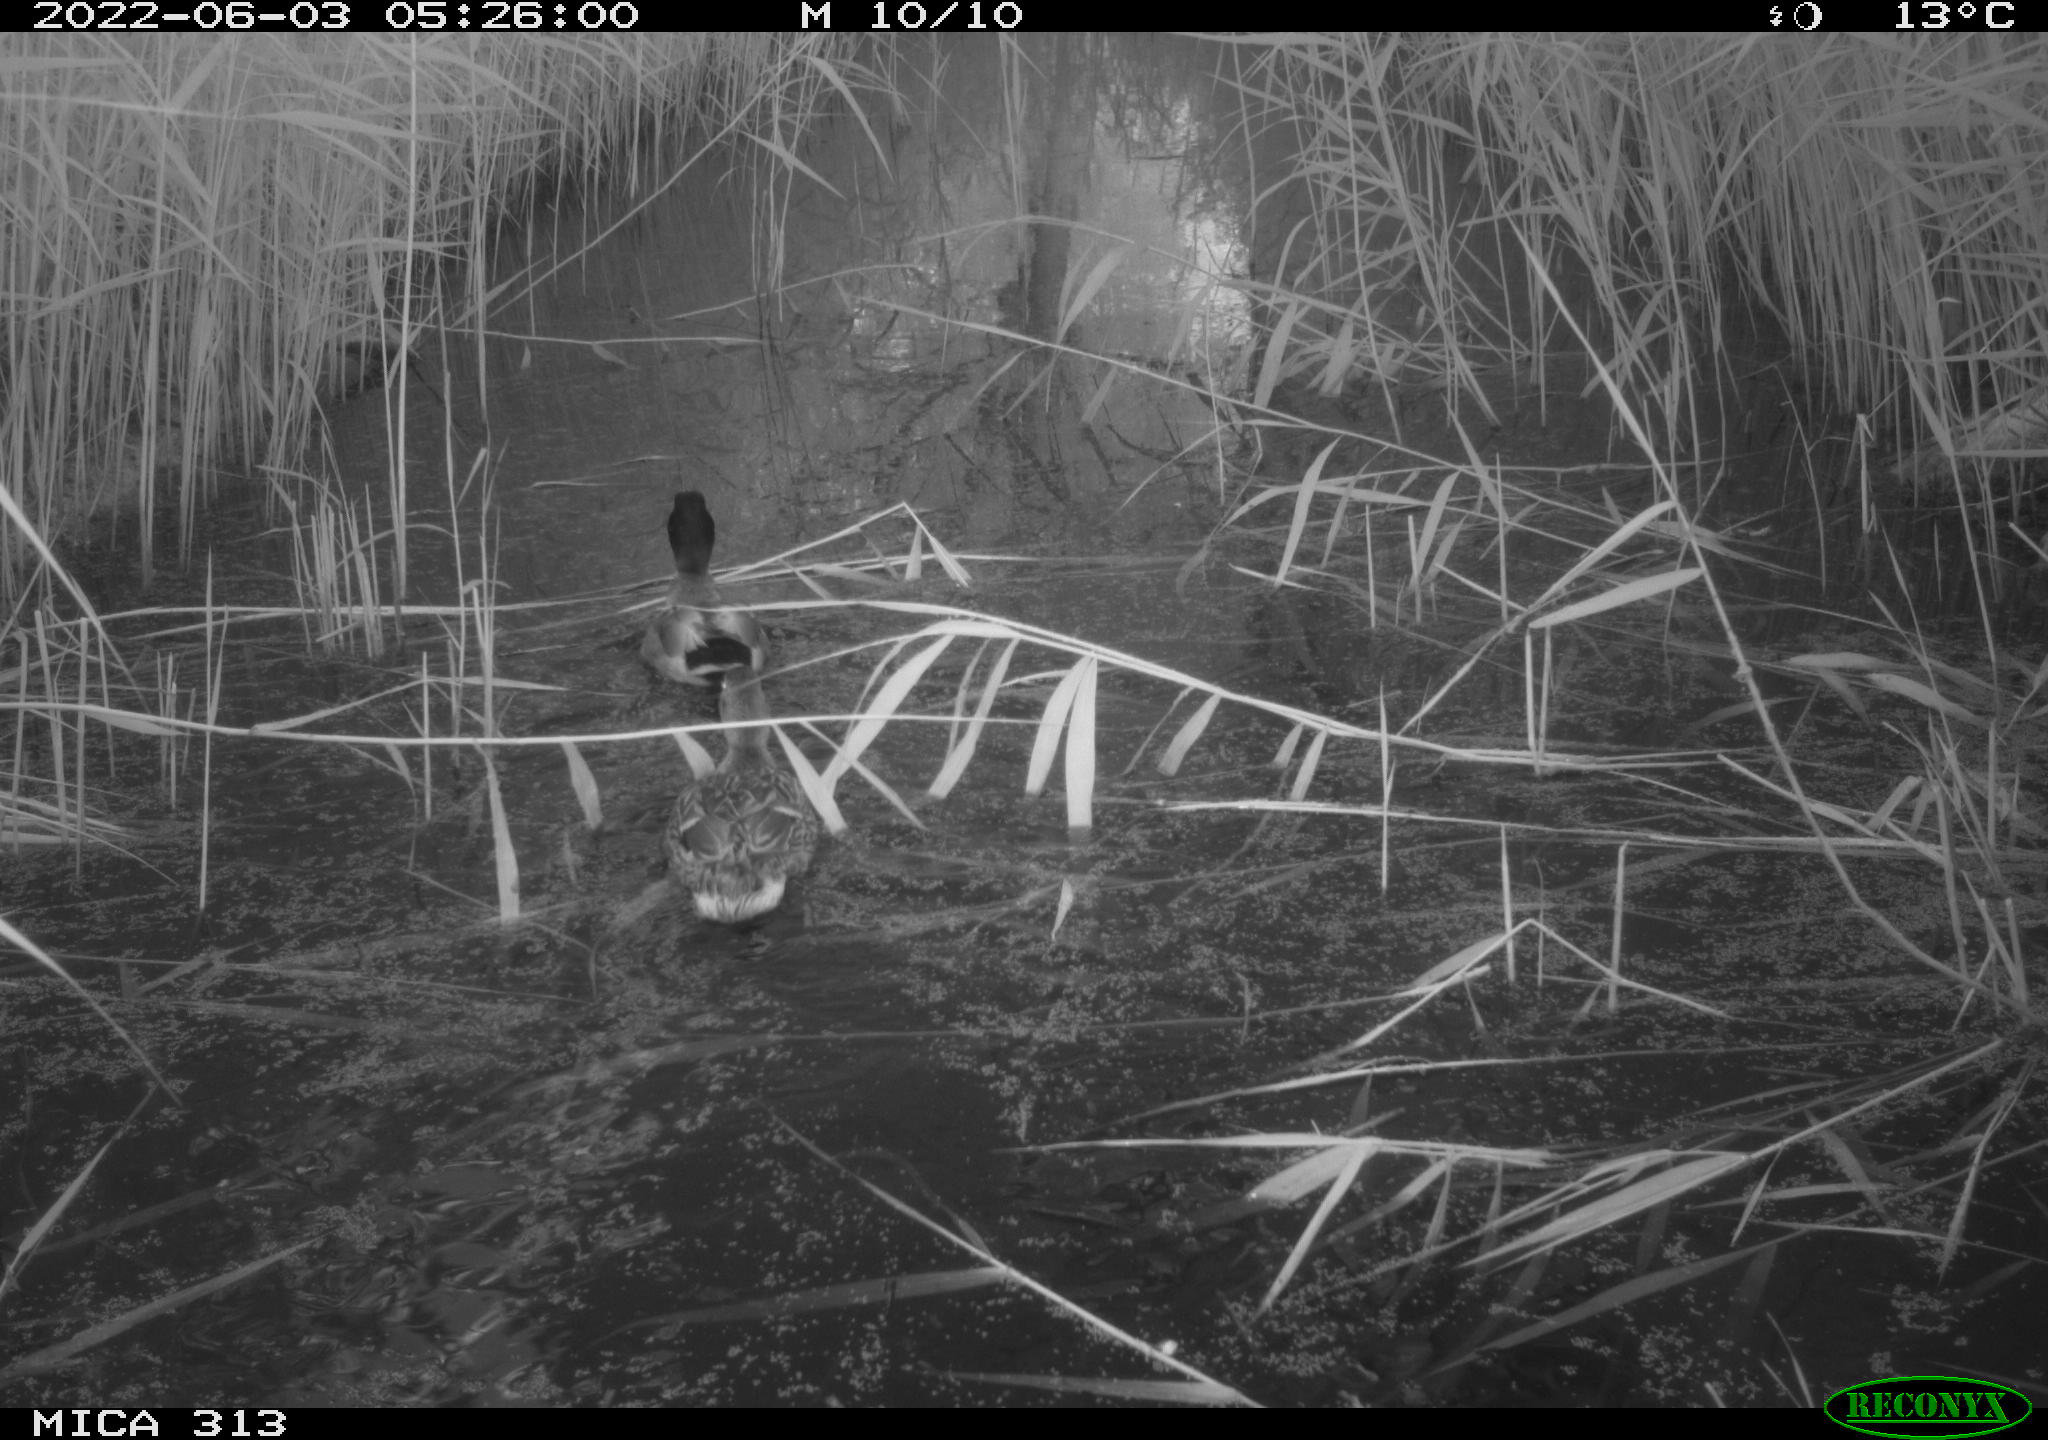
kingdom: Animalia
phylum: Chordata
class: Aves
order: Anseriformes
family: Anatidae
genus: Anas
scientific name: Anas platyrhynchos
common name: Mallard
